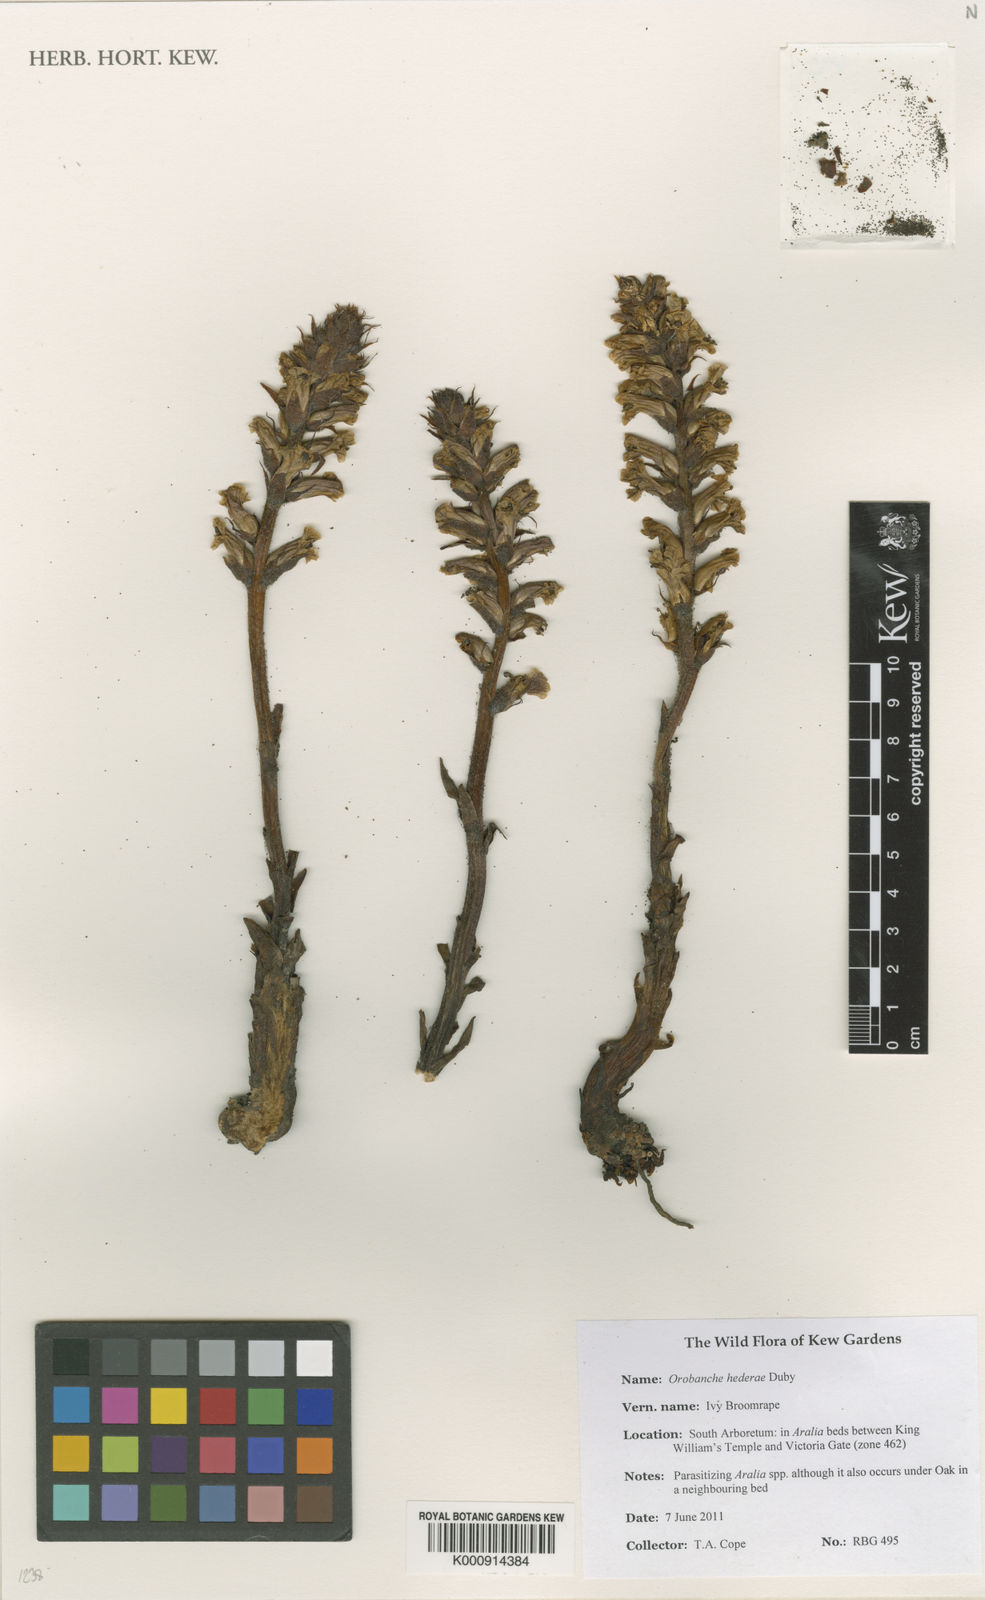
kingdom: Plantae
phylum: Tracheophyta
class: Magnoliopsida
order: Lamiales
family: Orobanchaceae
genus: Orobanche
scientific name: Orobanche hederae
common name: Ivy broomrape
